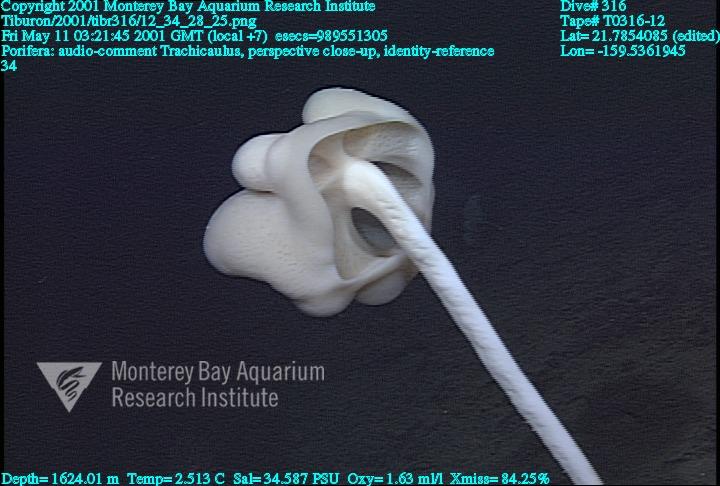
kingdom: Animalia
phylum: Porifera
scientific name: Porifera
